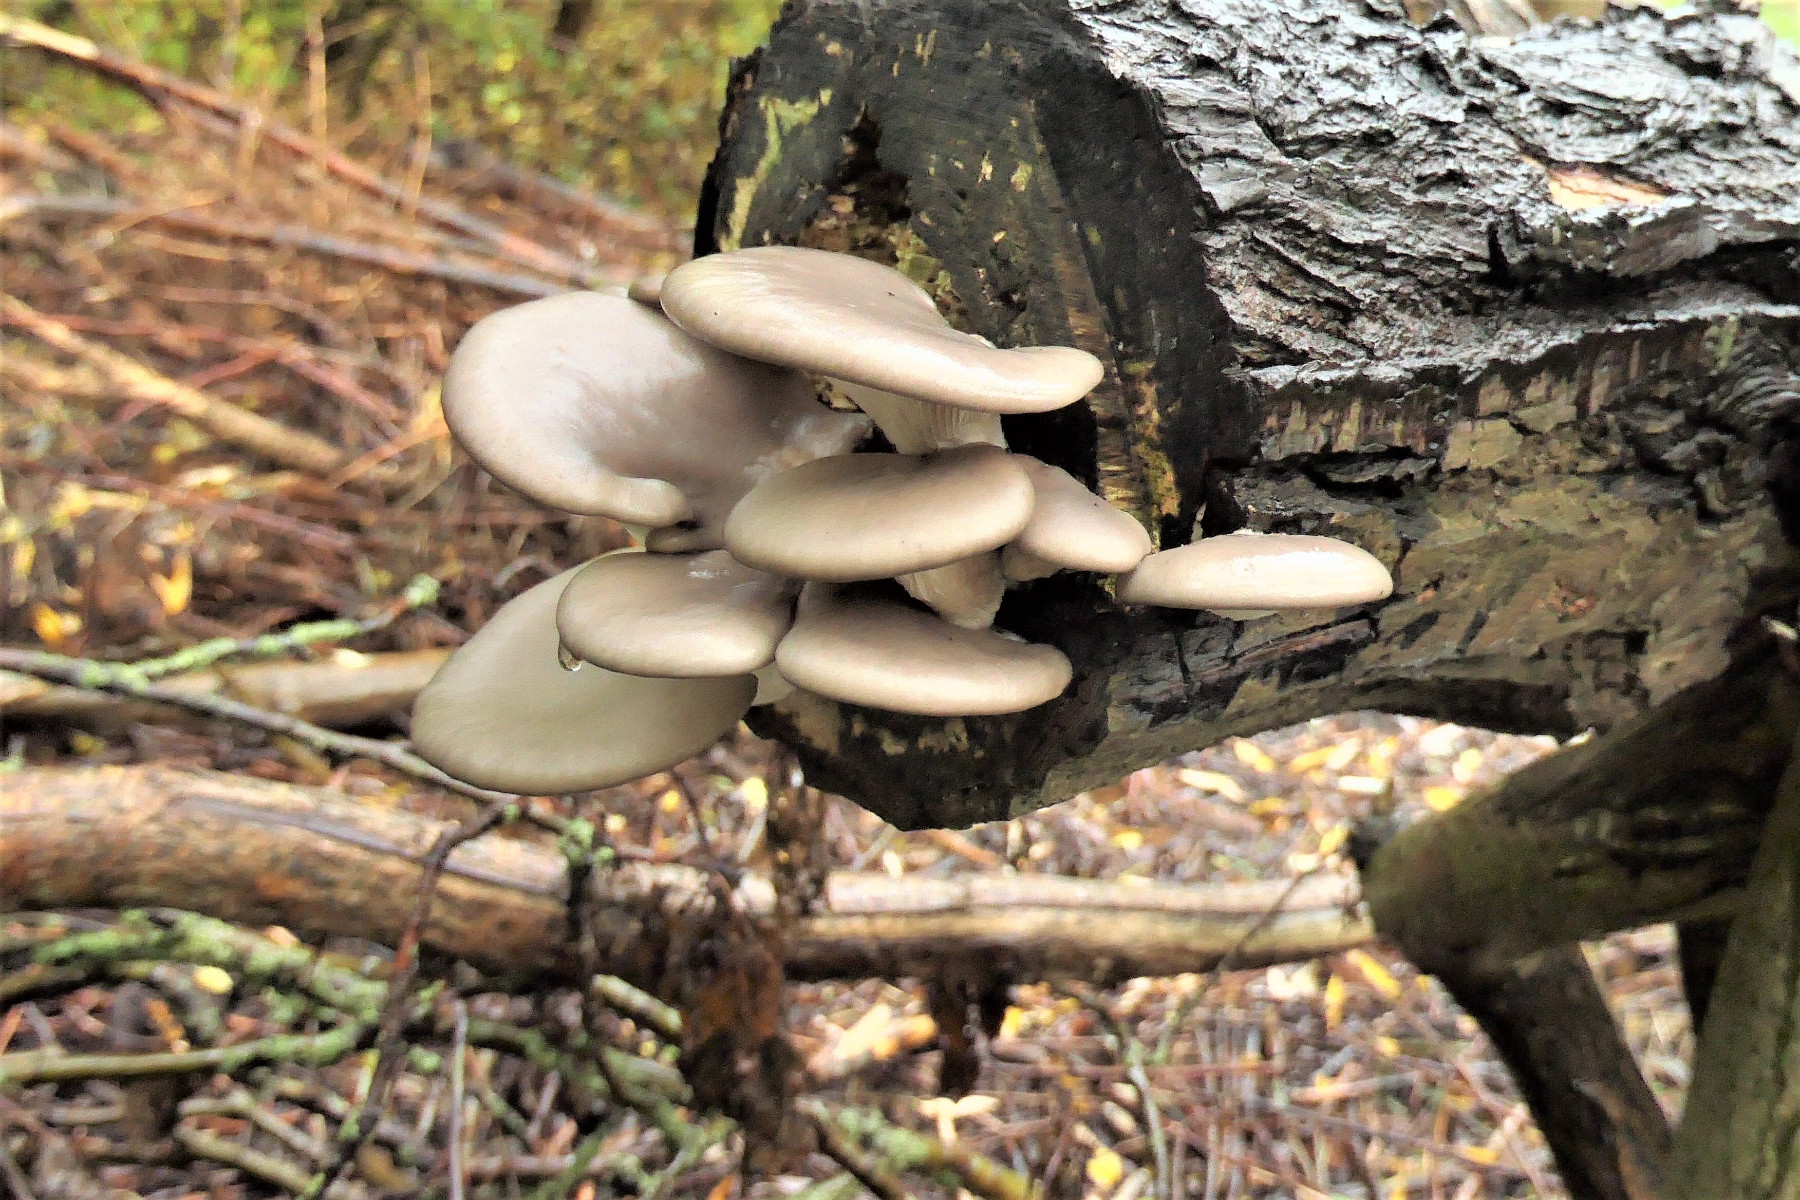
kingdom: Fungi
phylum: Basidiomycota
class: Agaricomycetes
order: Agaricales
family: Pleurotaceae
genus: Pleurotus
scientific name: Pleurotus ostreatus
